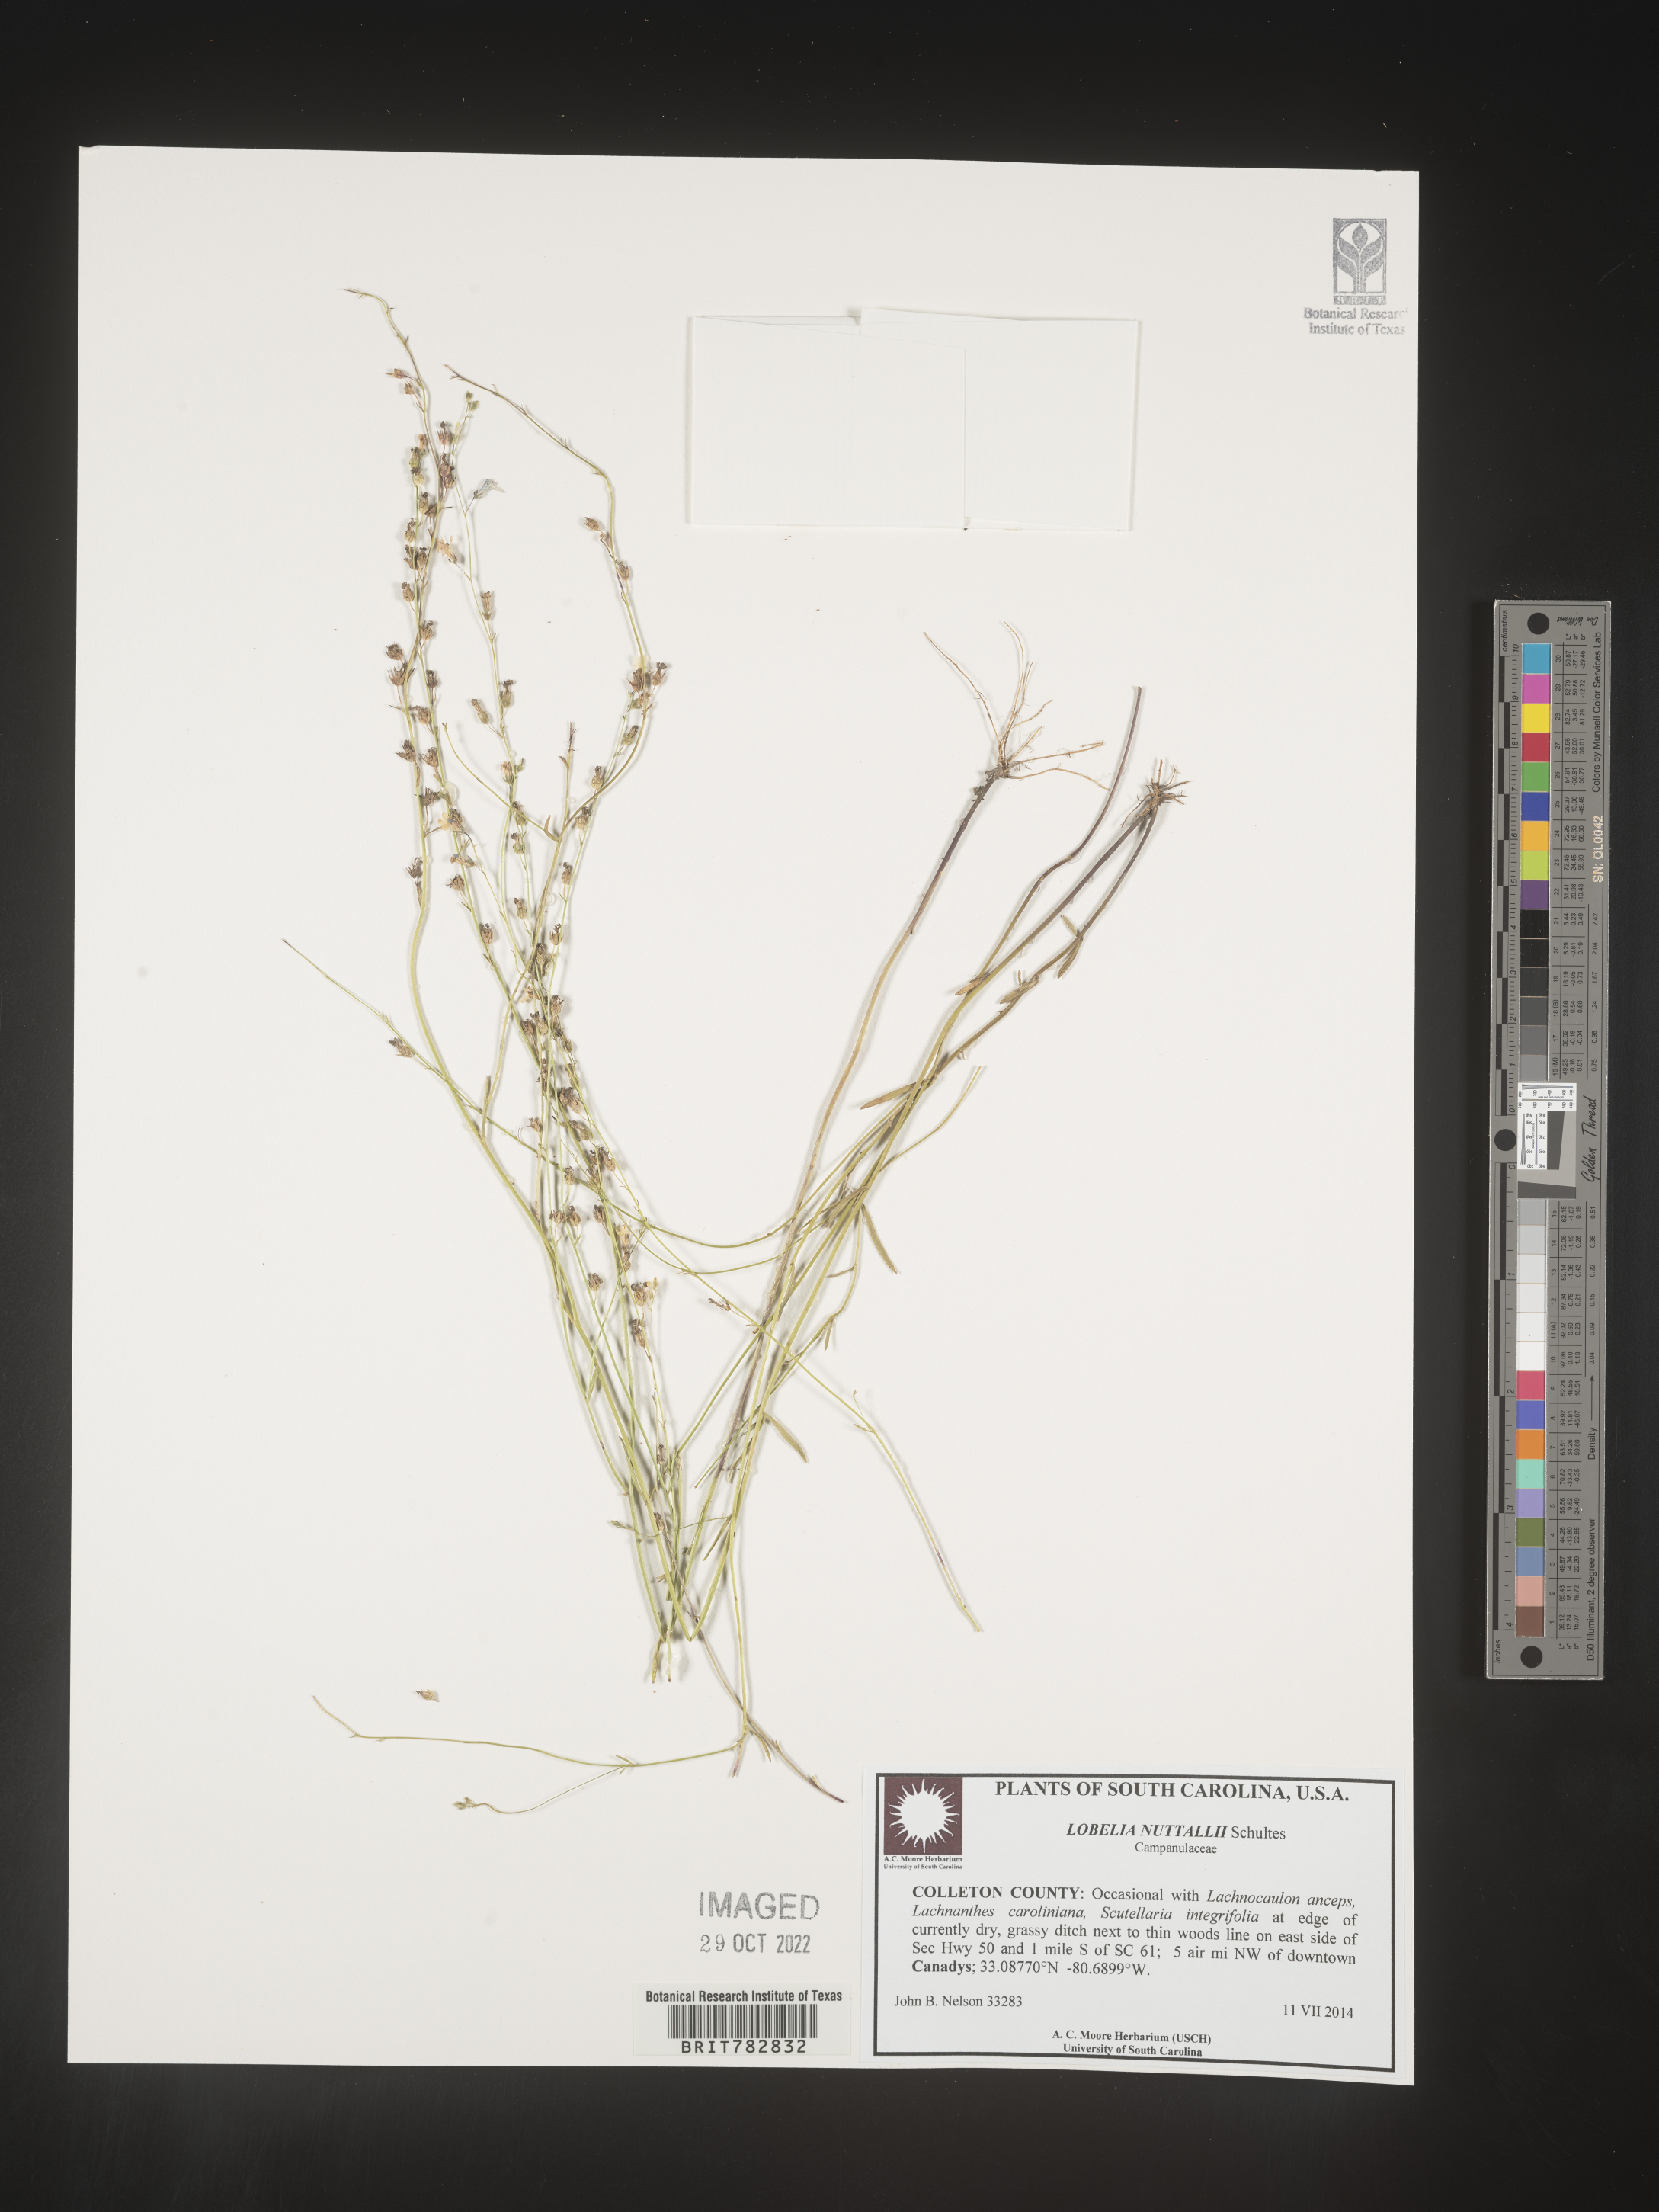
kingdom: Plantae
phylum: Tracheophyta
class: Magnoliopsida
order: Asterales
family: Campanulaceae
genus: Lobelia
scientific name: Lobelia nuttallii
